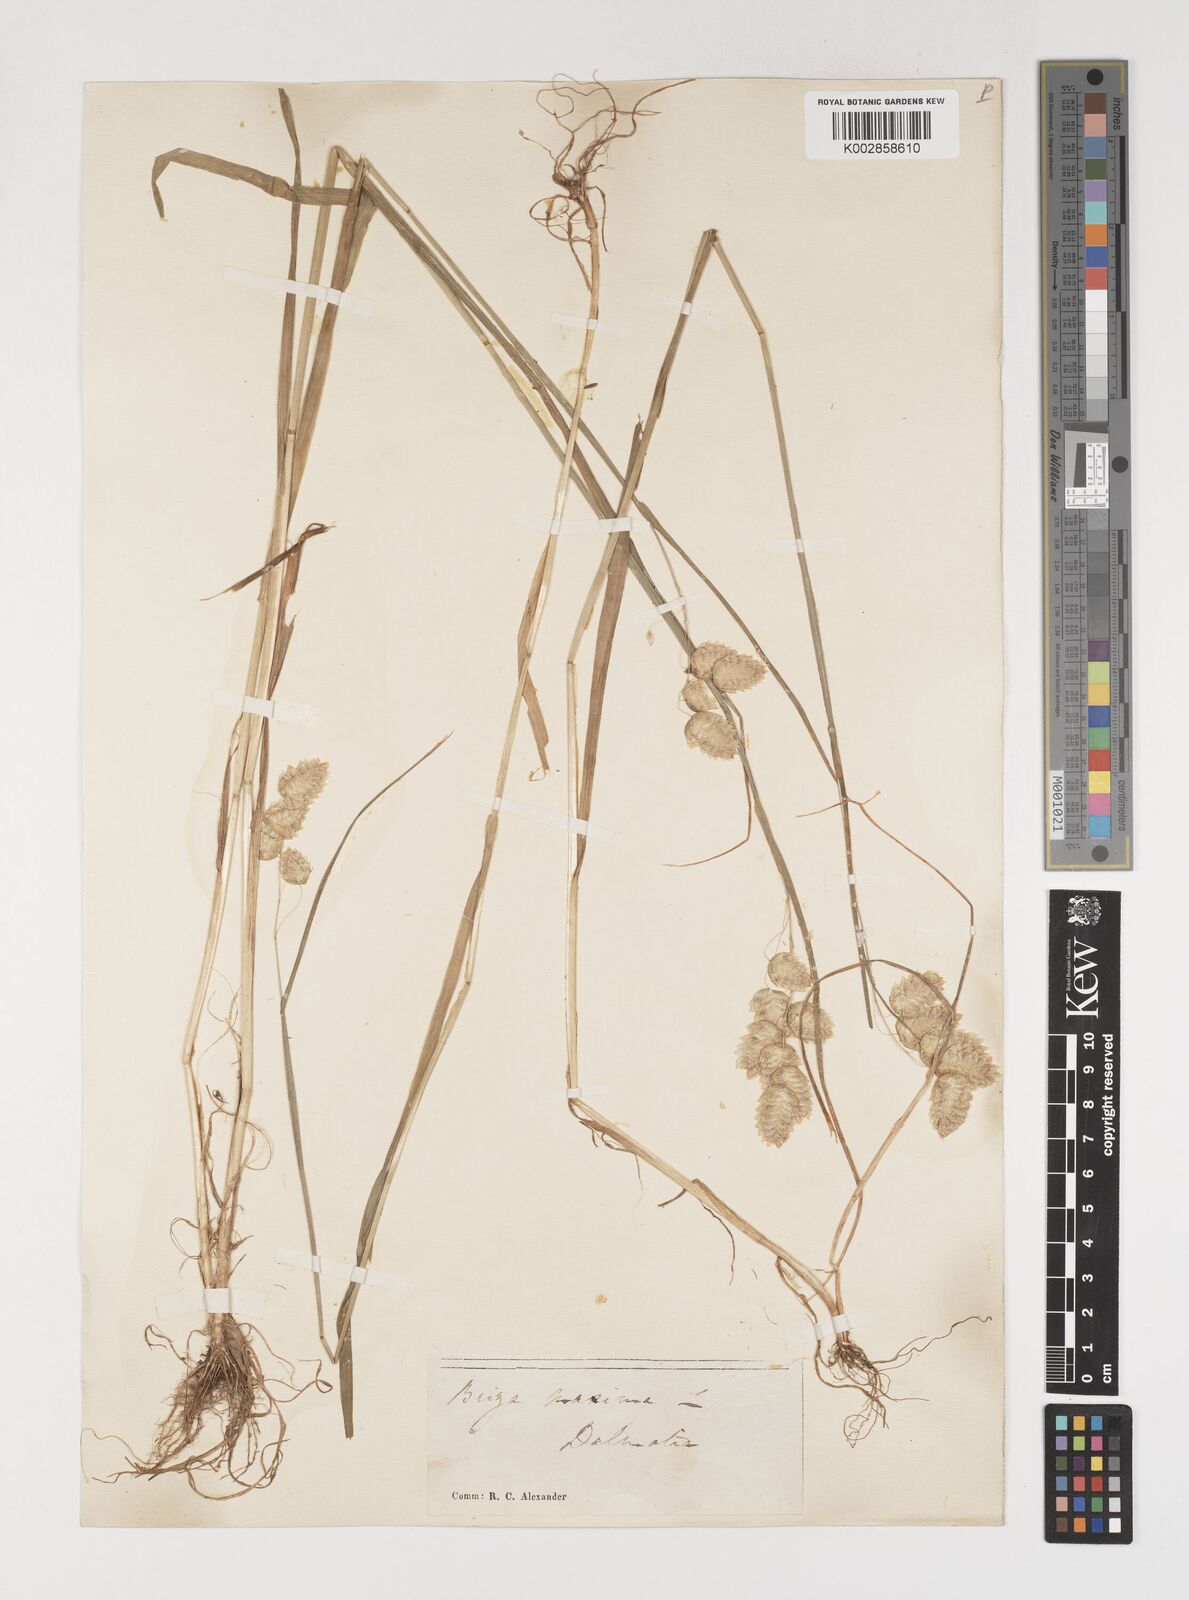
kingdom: Plantae
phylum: Tracheophyta
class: Liliopsida
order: Poales
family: Poaceae
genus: Briza
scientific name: Briza maxima
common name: Big quakinggrass
